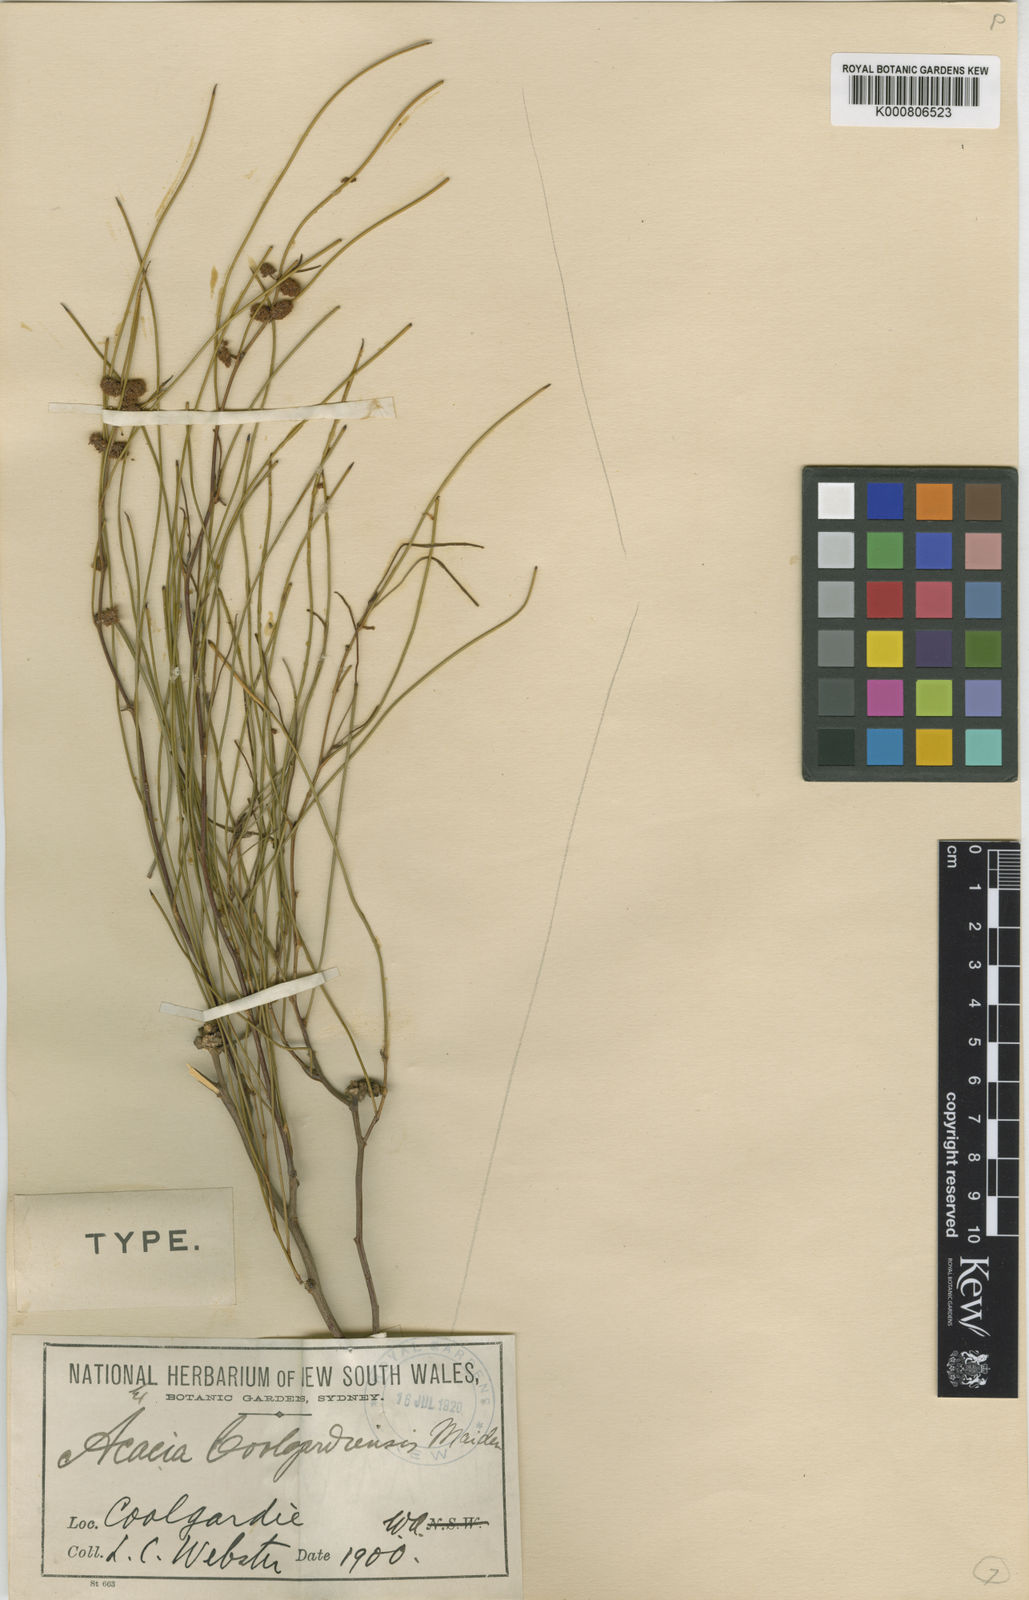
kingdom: Plantae
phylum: Tracheophyta
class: Magnoliopsida
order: Fabales
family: Fabaceae
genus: Acacia
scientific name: Acacia coolgardiensis
